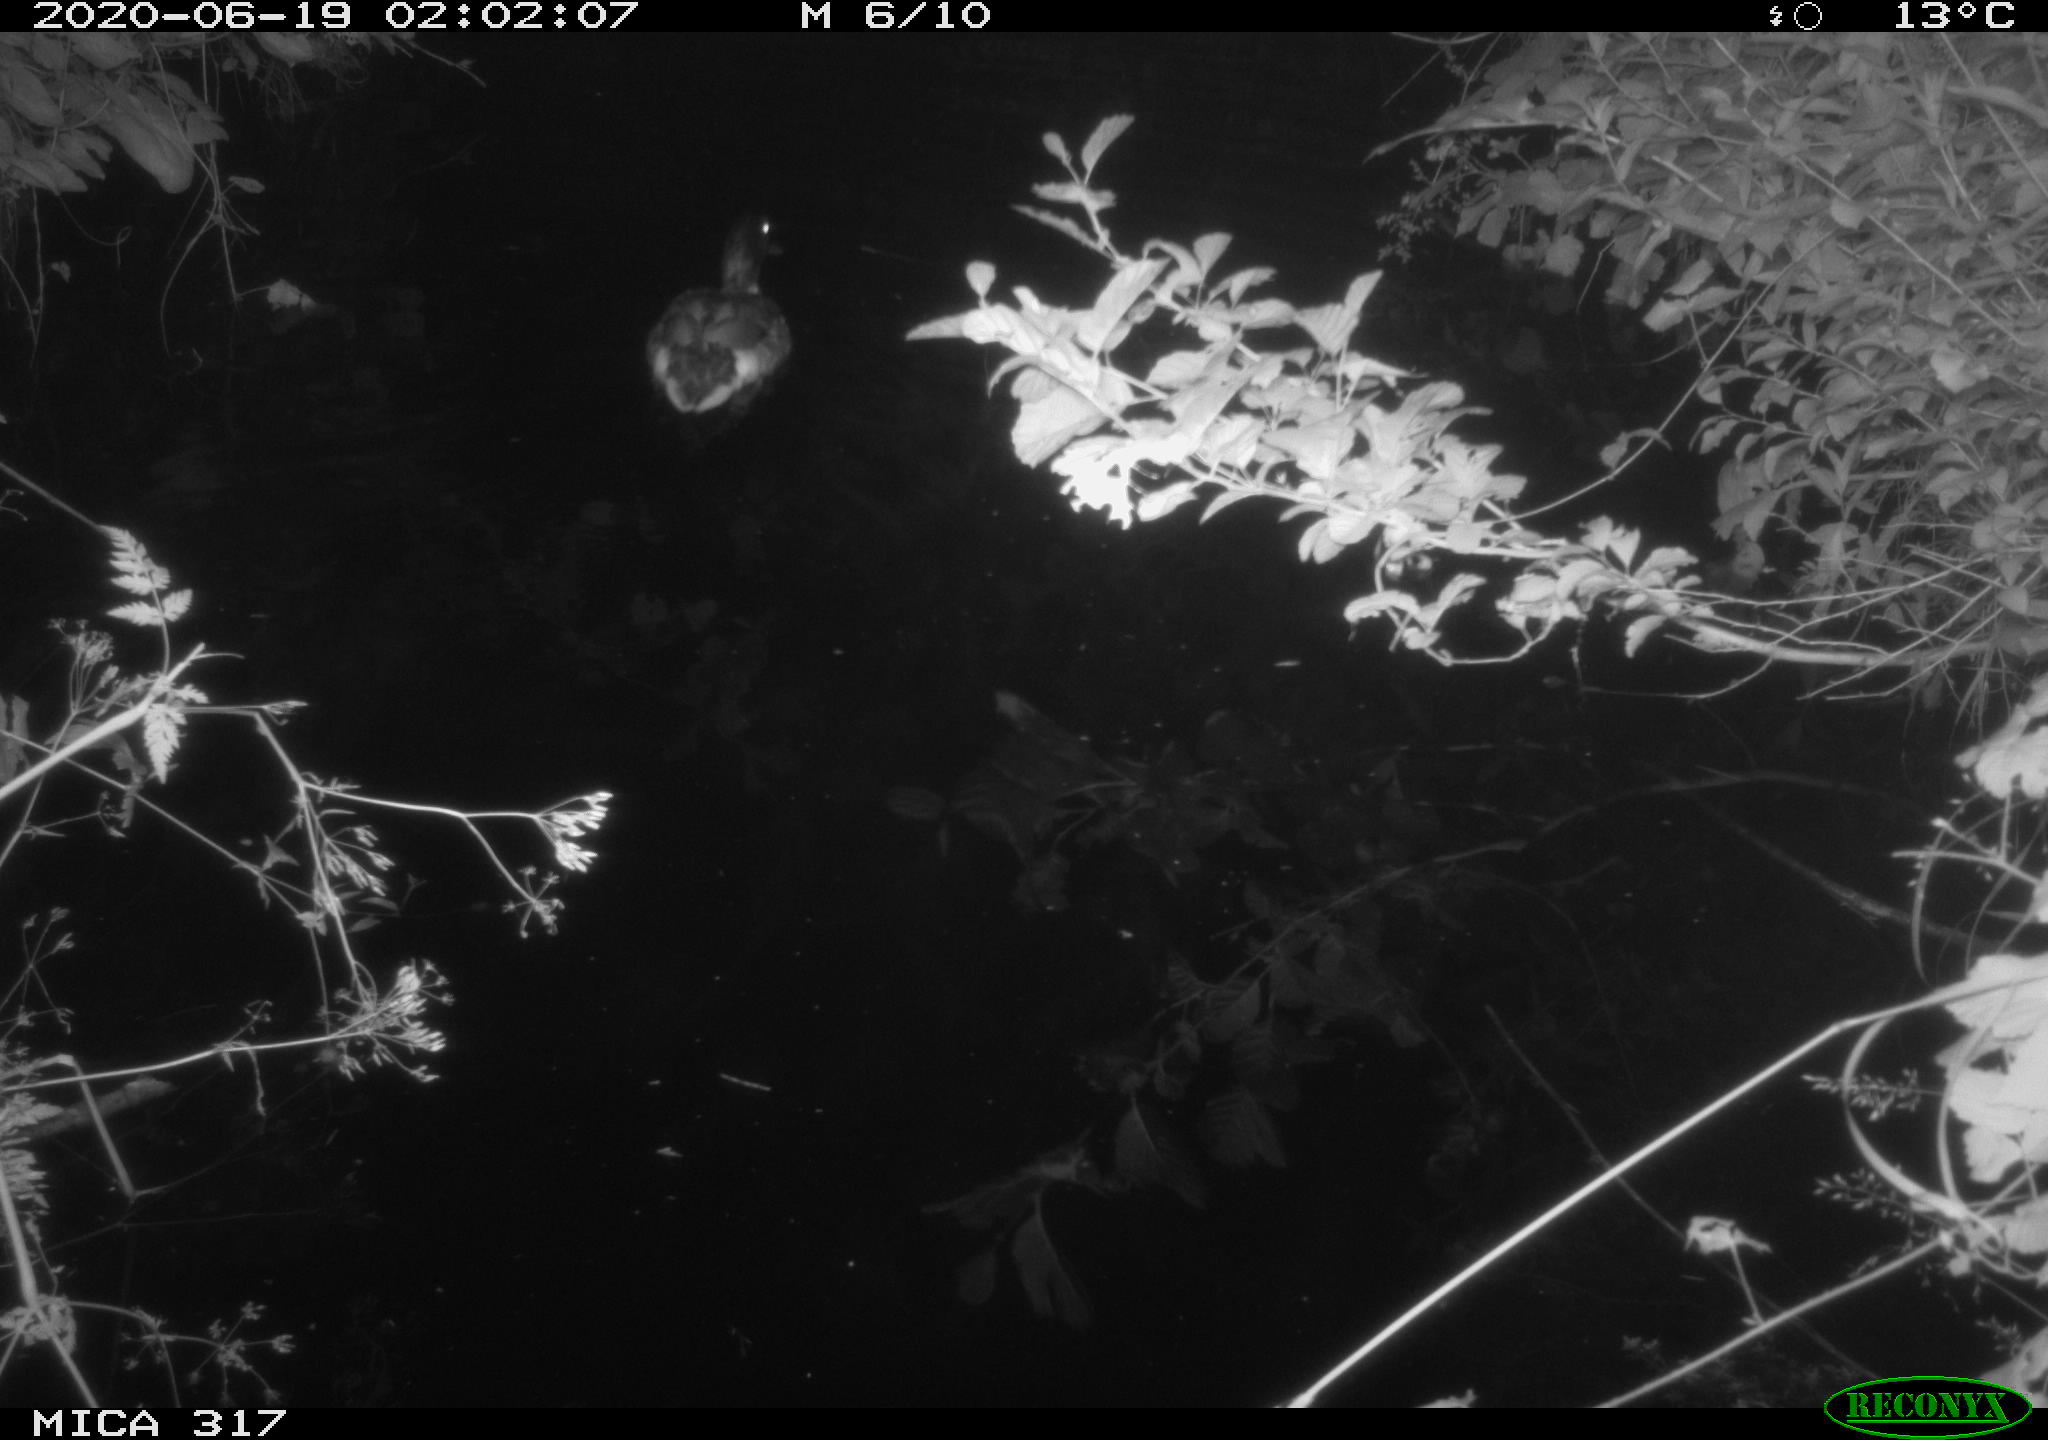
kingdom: Animalia
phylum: Chordata
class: Aves
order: Anseriformes
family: Anatidae
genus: Anas
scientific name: Anas platyrhynchos
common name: Mallard
